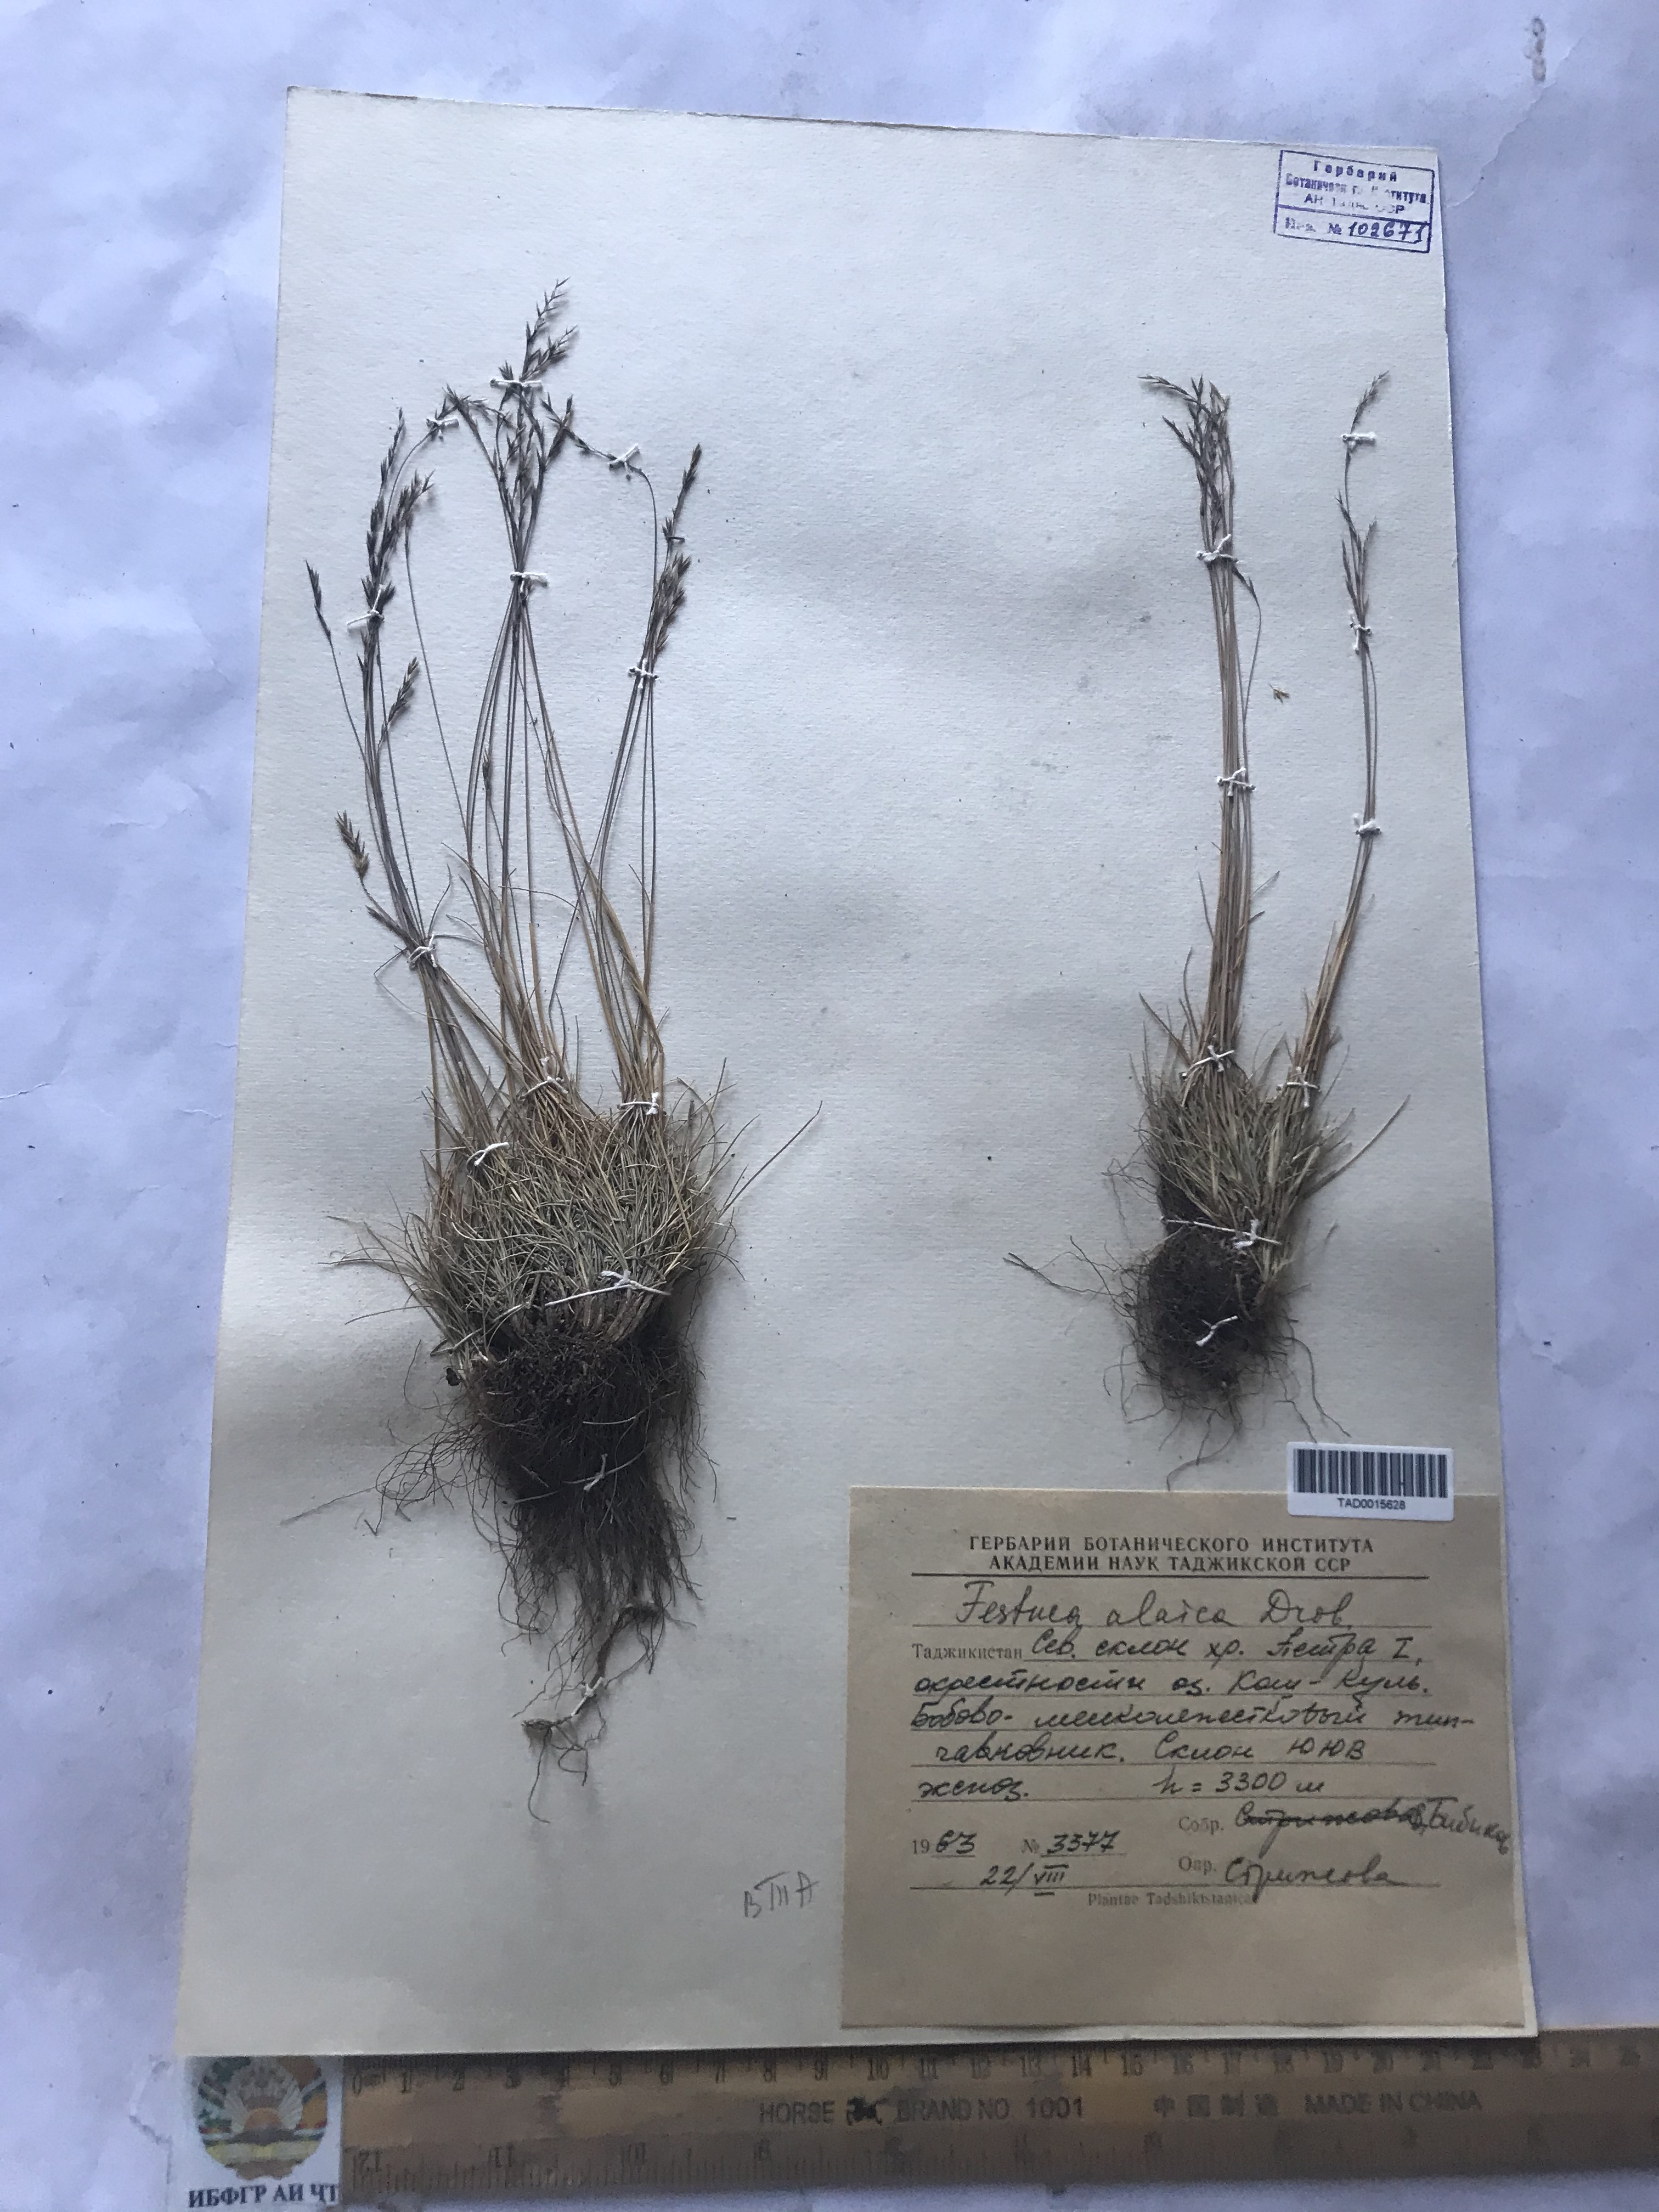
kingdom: Plantae
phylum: Tracheophyta
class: Liliopsida
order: Poales
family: Poaceae
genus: Festuca
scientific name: Festuca alaica
